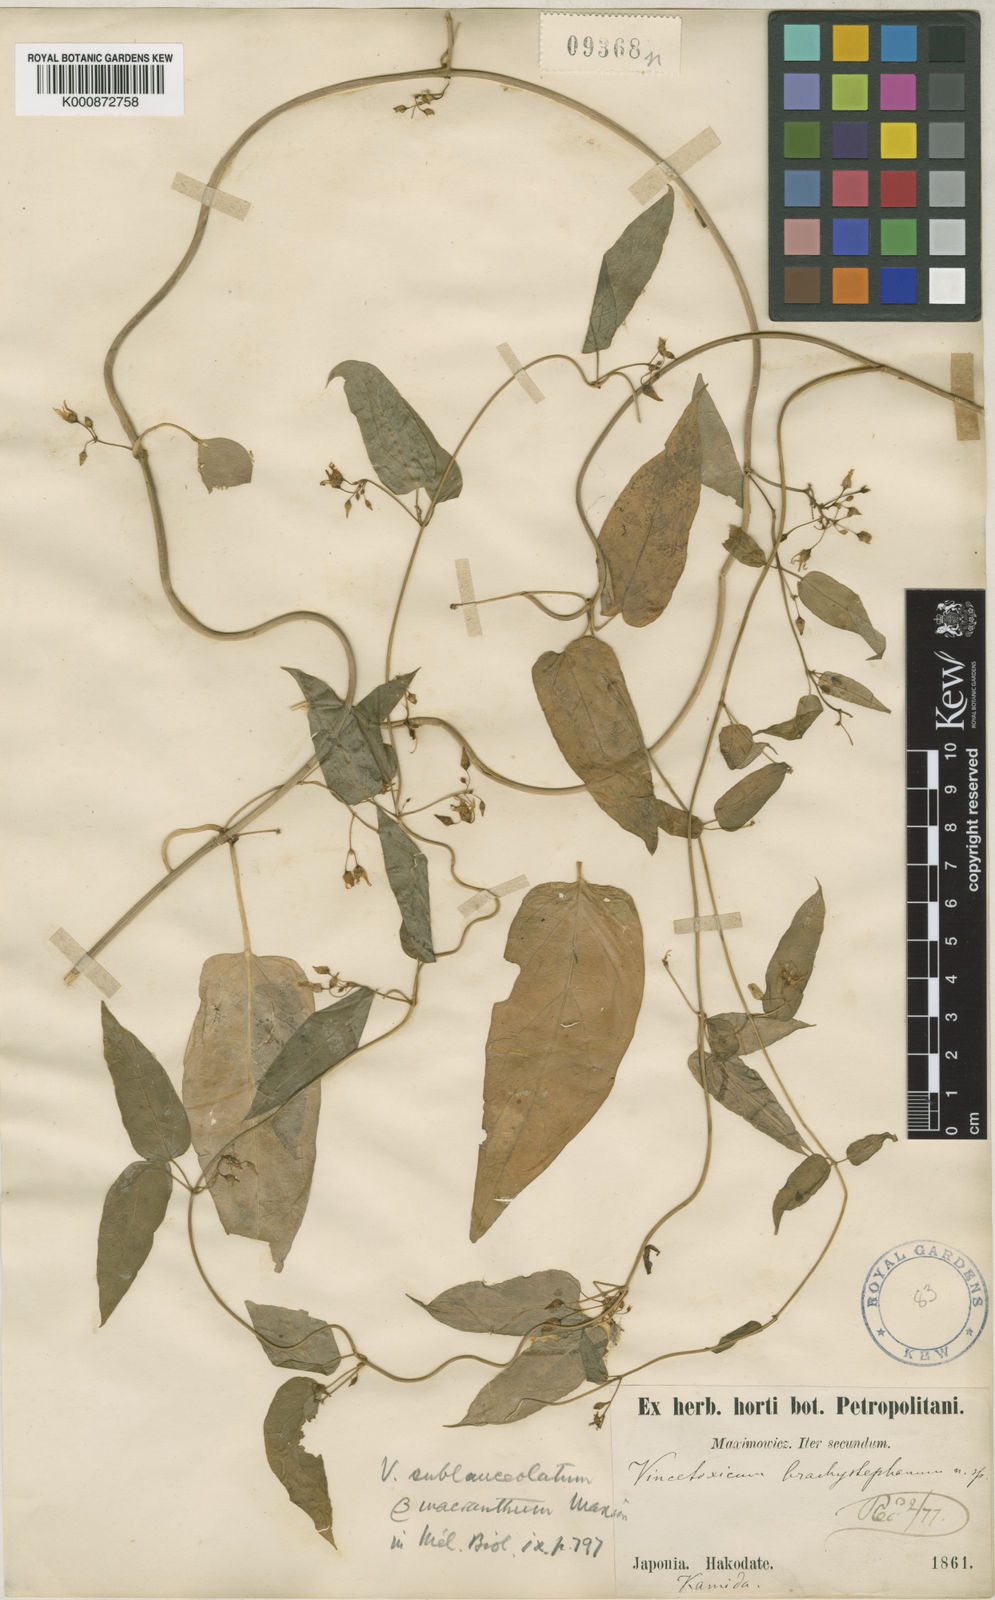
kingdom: Plantae
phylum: Tracheophyta
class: Magnoliopsida
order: Gentianales
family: Apocynaceae
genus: Vincetoxicum
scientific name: Vincetoxicum sublanceolatum
